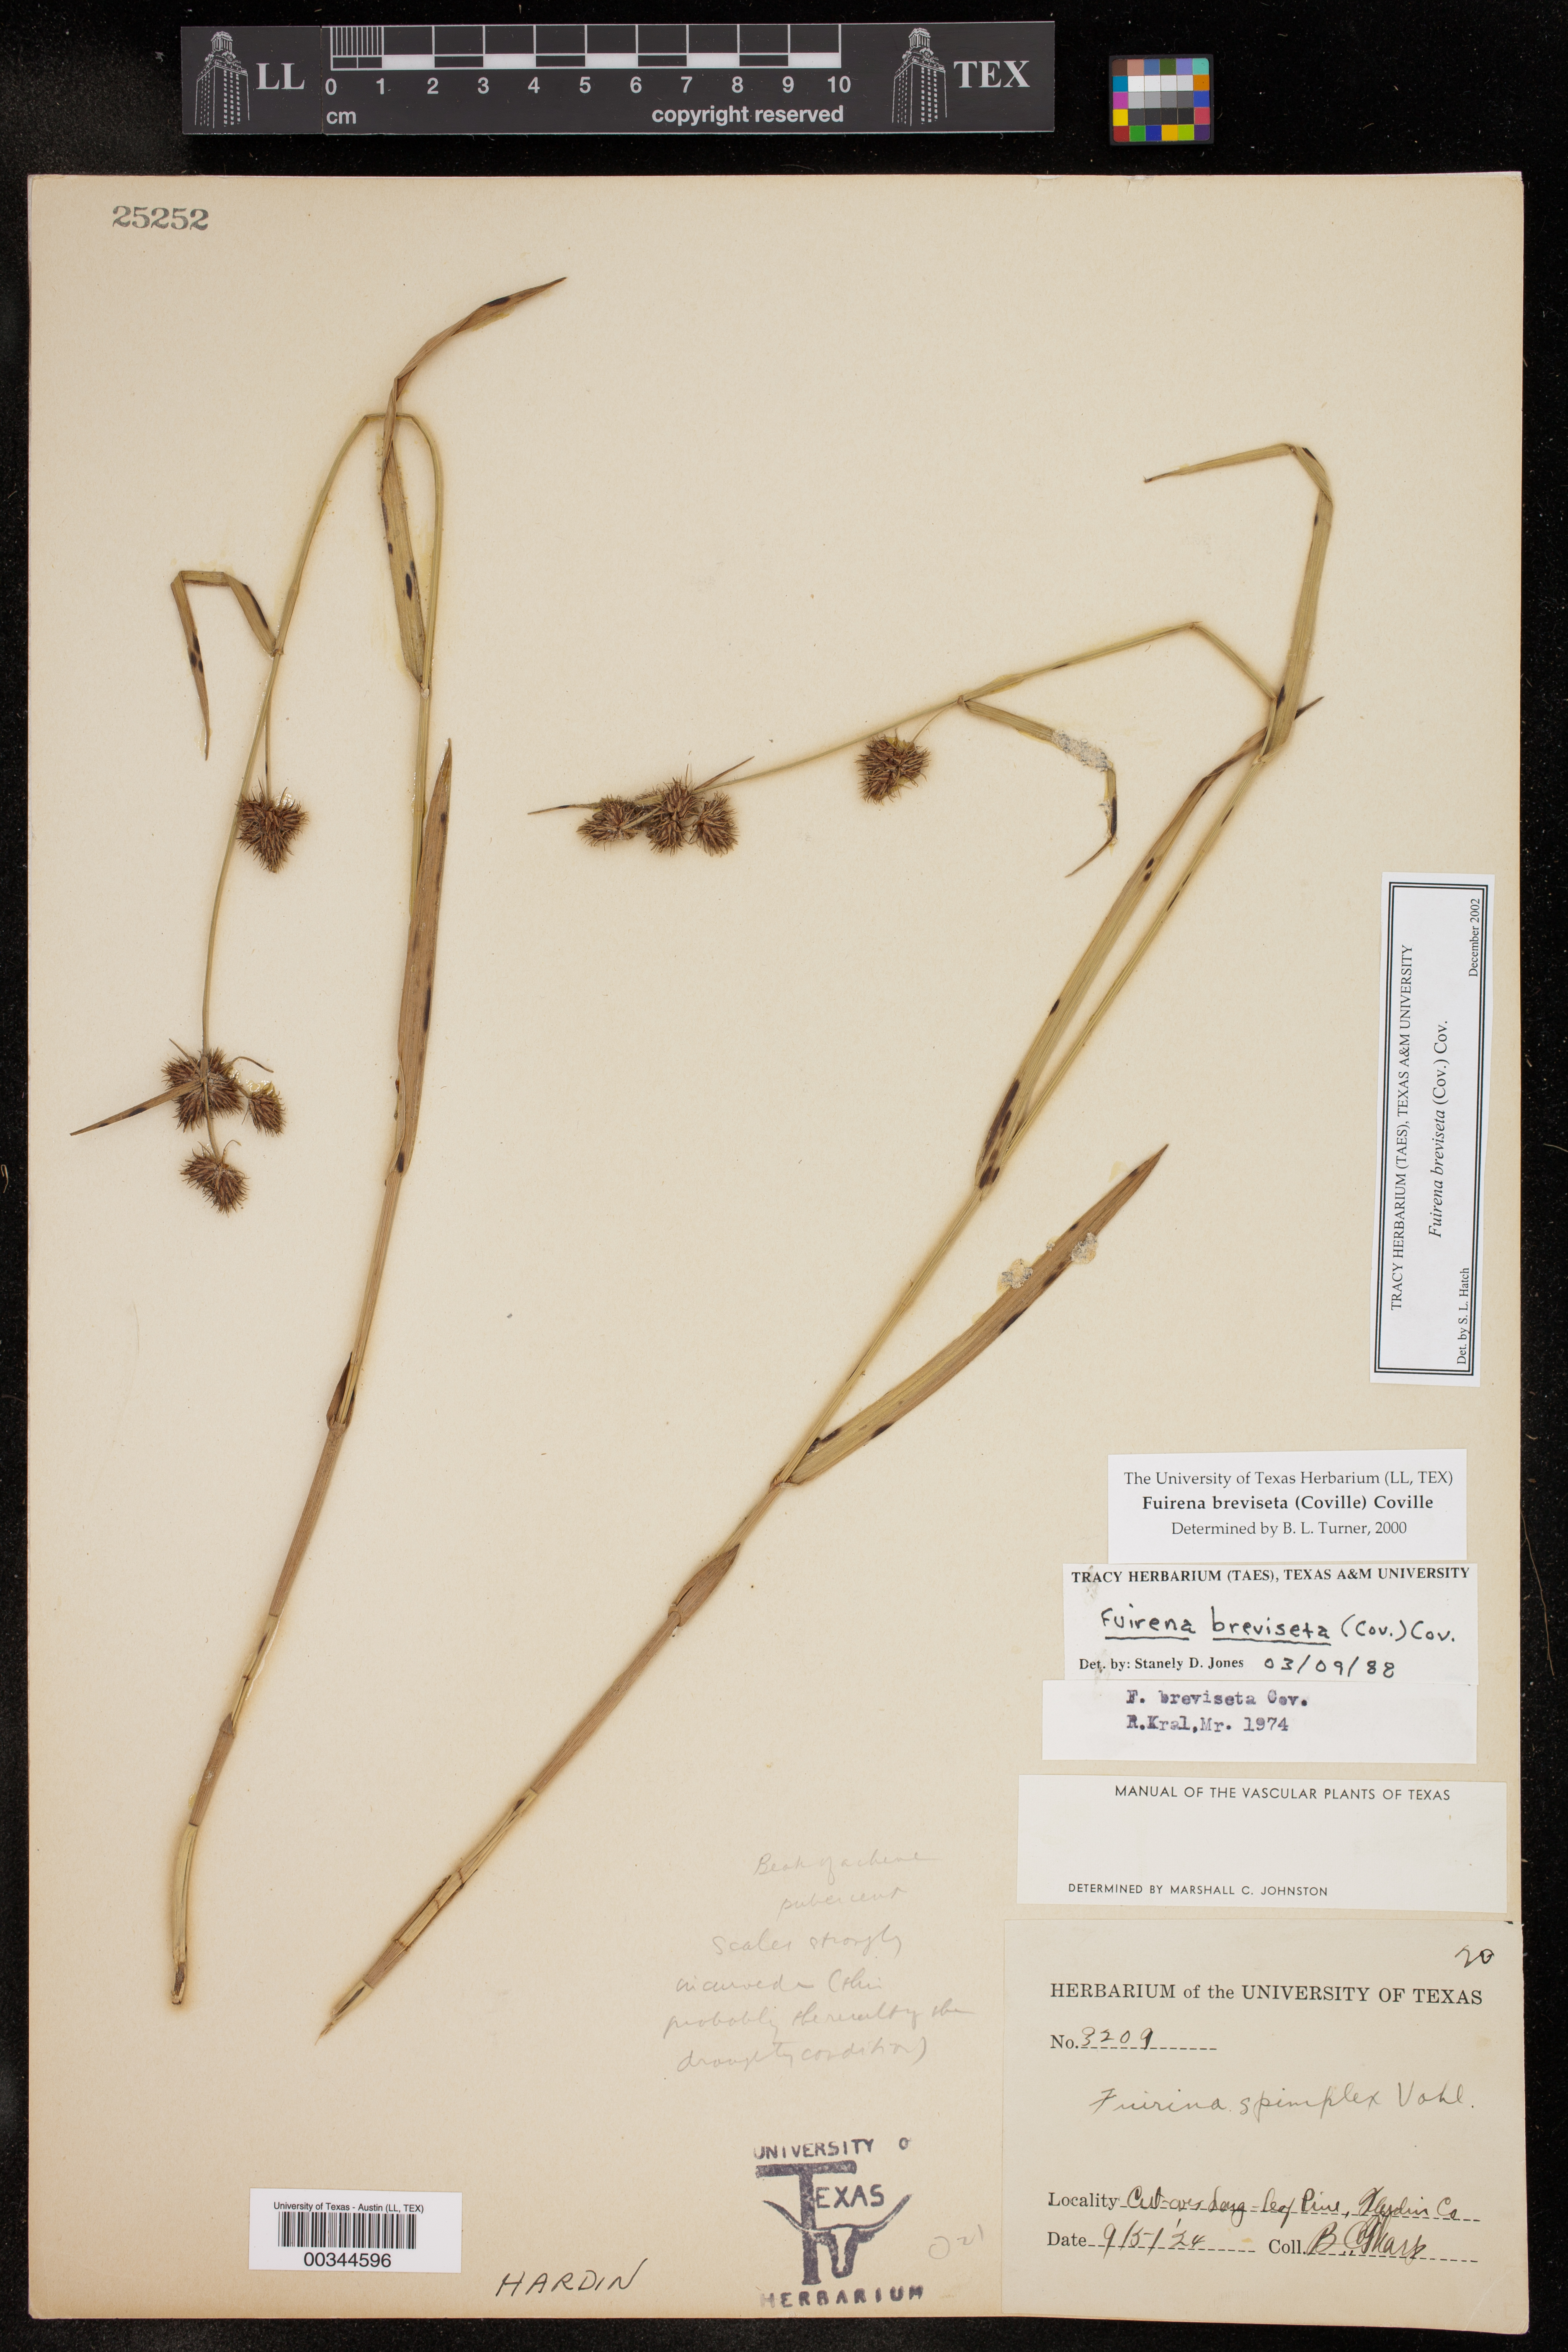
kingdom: Plantae
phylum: Tracheophyta
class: Liliopsida
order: Poales
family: Cyperaceae
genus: Fuirena
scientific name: Fuirena breviseta
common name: Saltmarsh umbrella sedge
